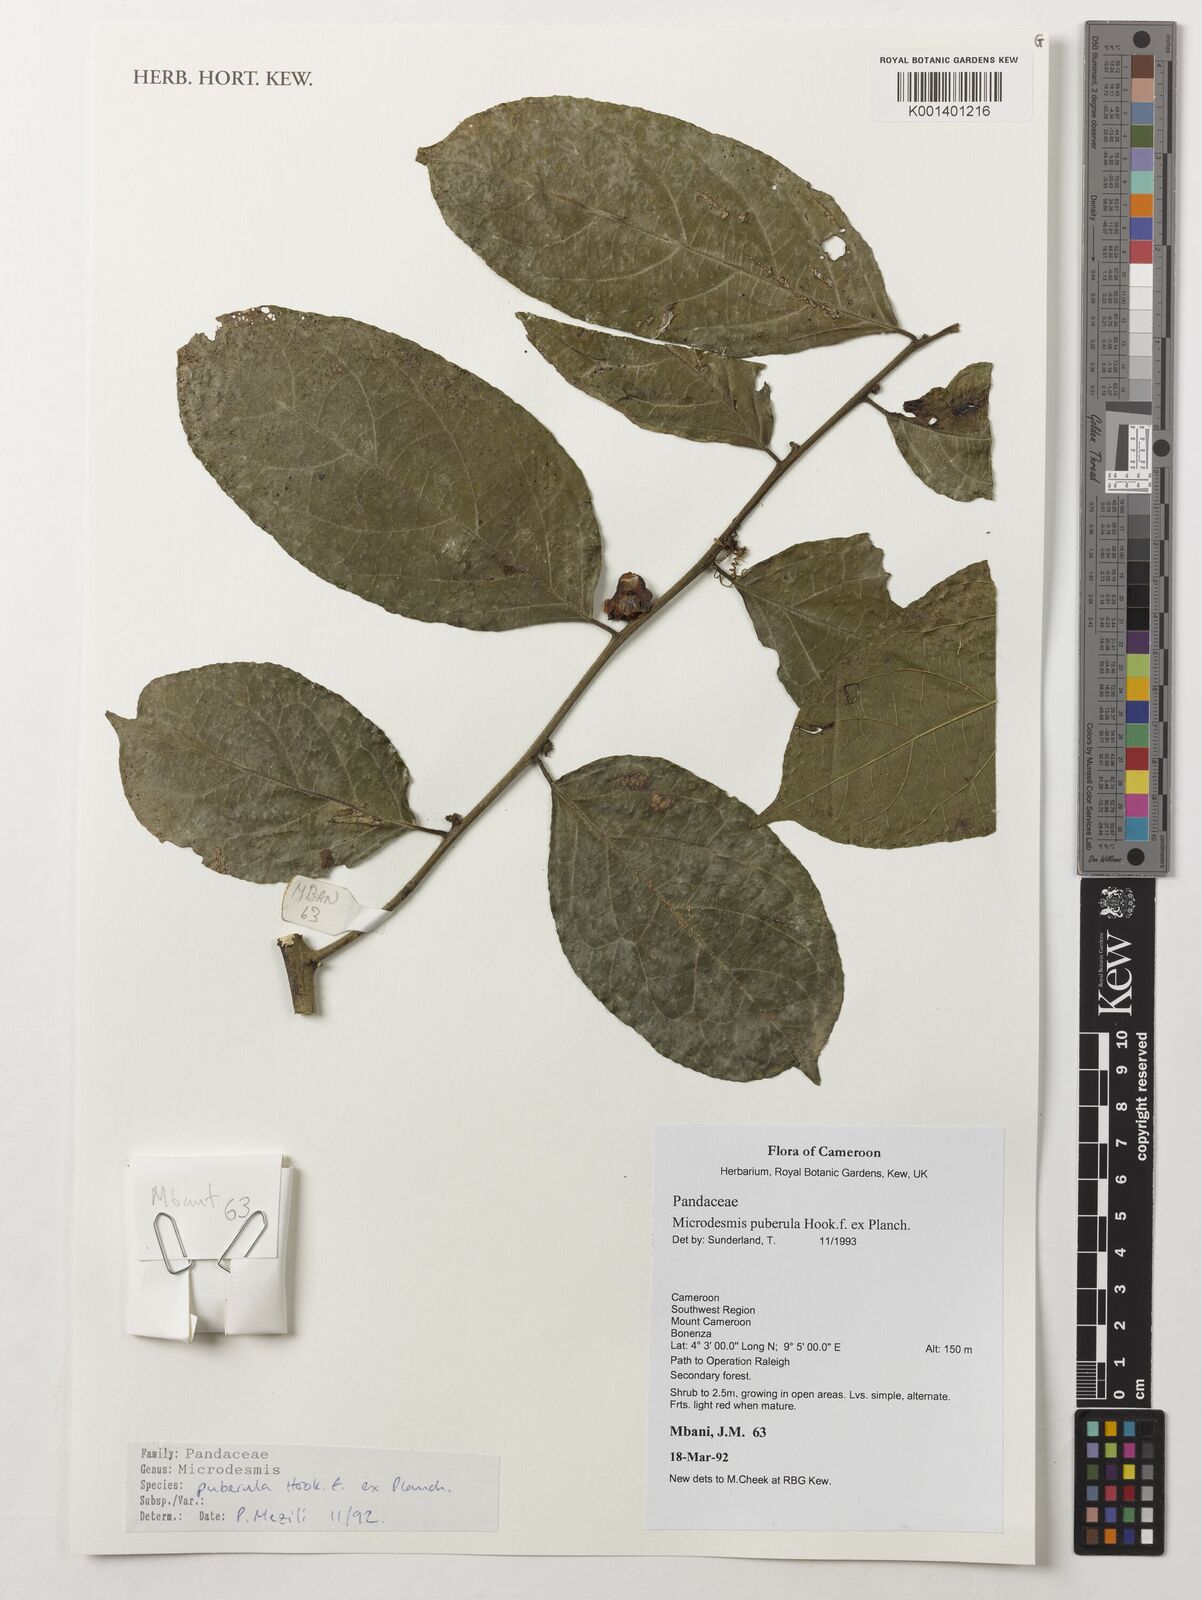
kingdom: Plantae
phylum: Tracheophyta
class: Magnoliopsida
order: Malpighiales
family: Pandaceae
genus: Microdesmis
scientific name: Microdesmis puberula
